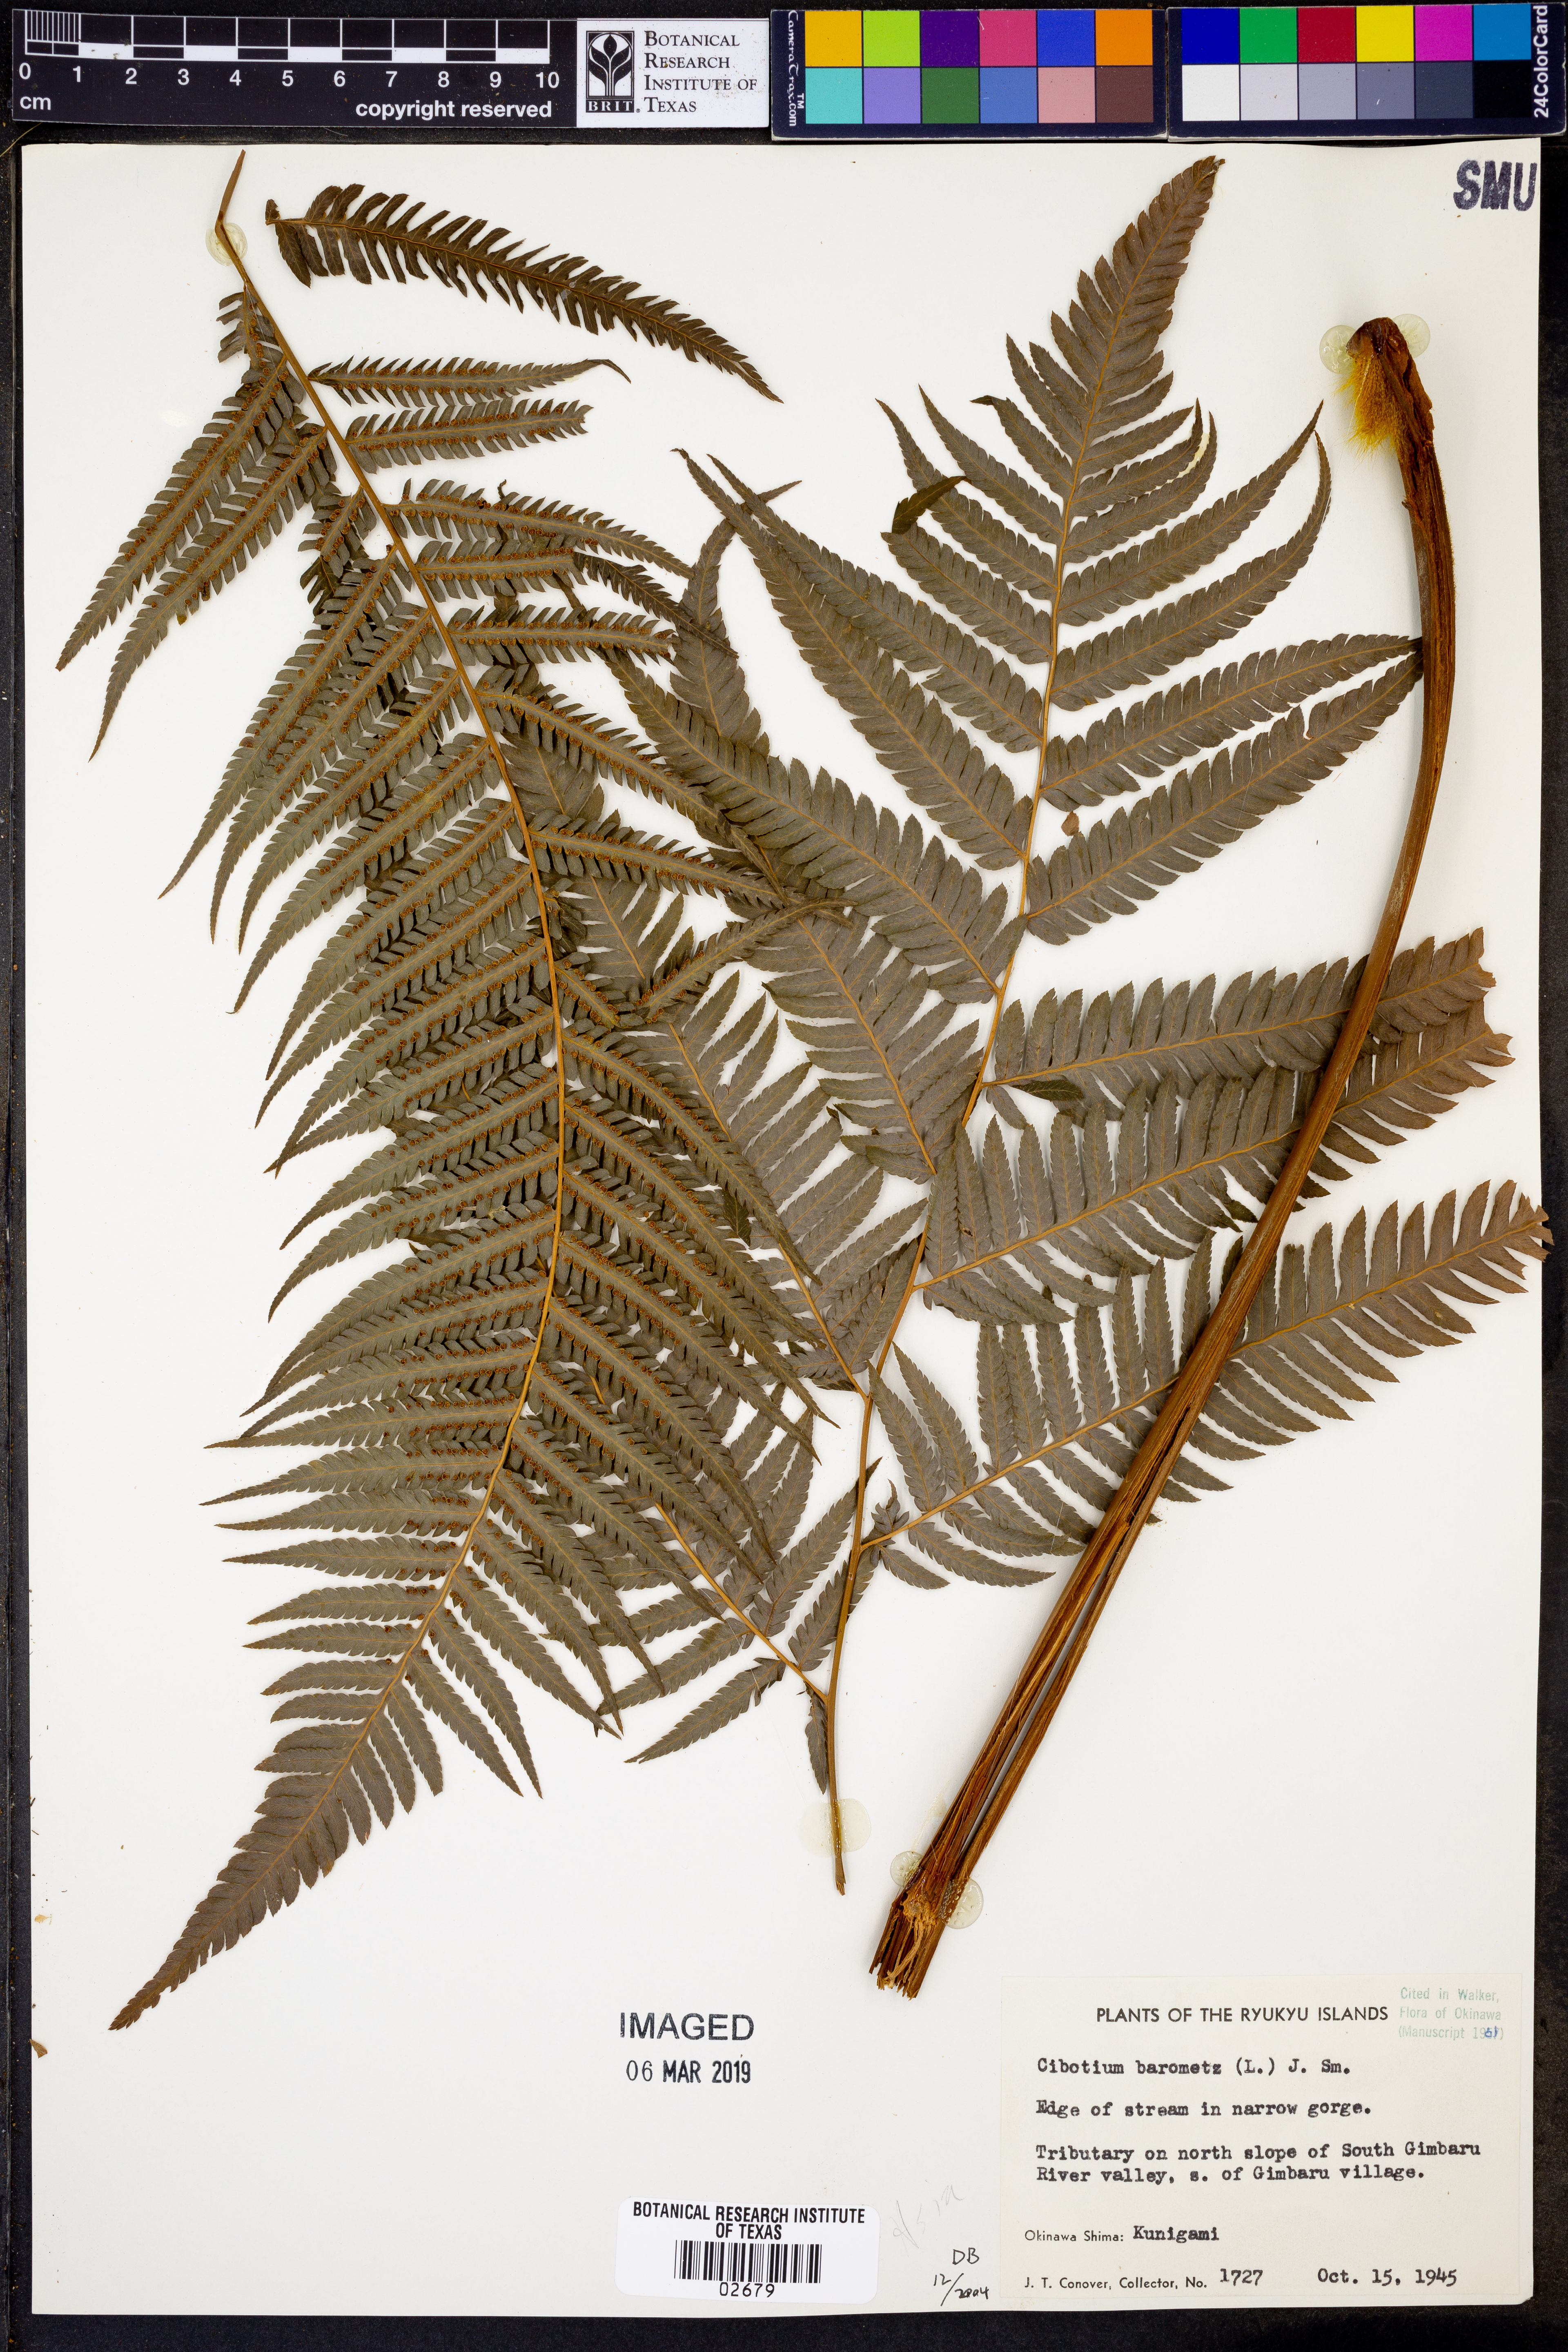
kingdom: Plantae
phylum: Tracheophyta
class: Polypodiopsida
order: Cyatheales
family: Cibotiaceae
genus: Cibotium
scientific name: Cibotium barometz
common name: Scythian-lamb
